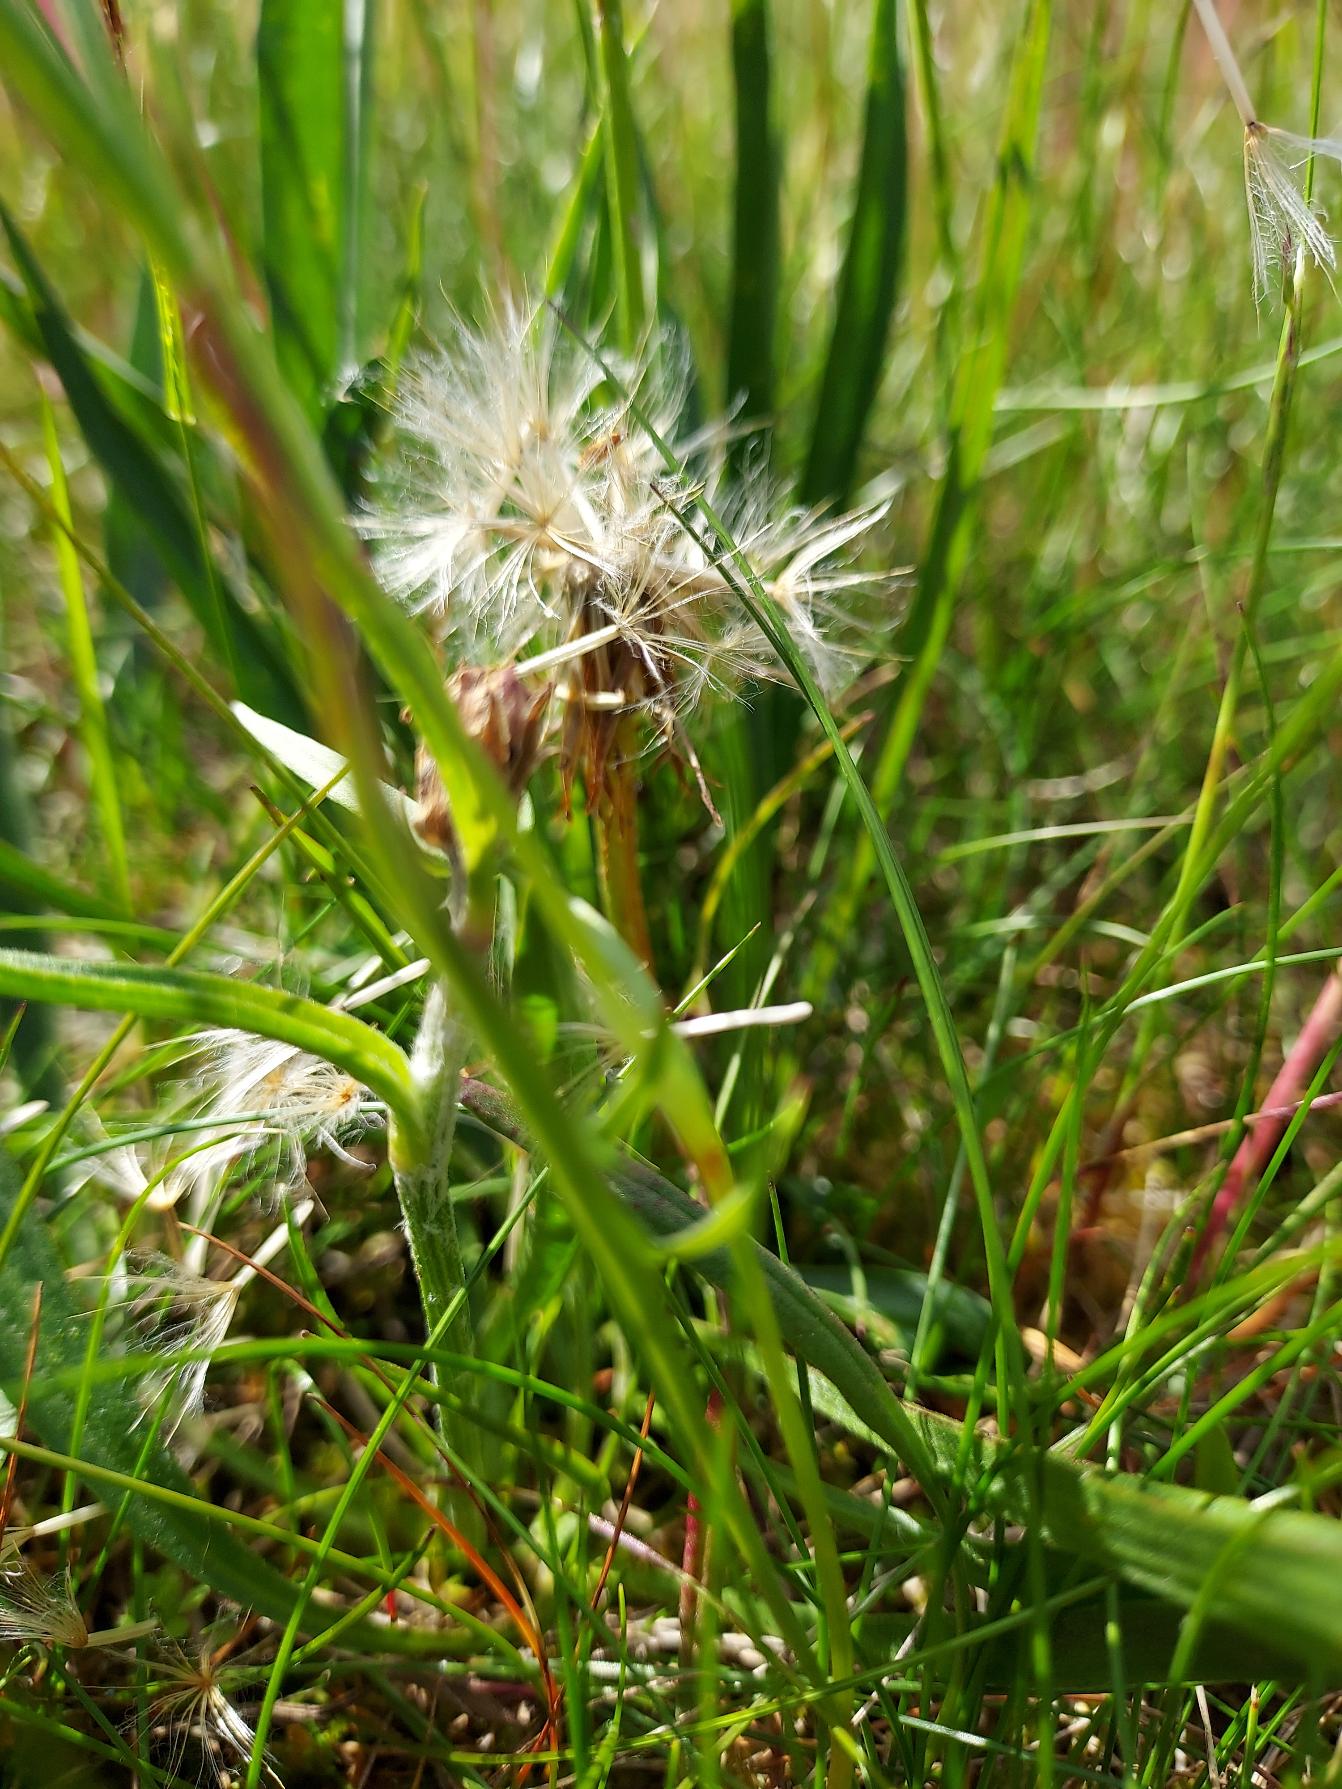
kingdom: Plantae
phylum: Tracheophyta
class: Magnoliopsida
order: Asterales
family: Asteraceae
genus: Scorzonera
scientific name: Scorzonera humilis
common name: Lav skorsoner
